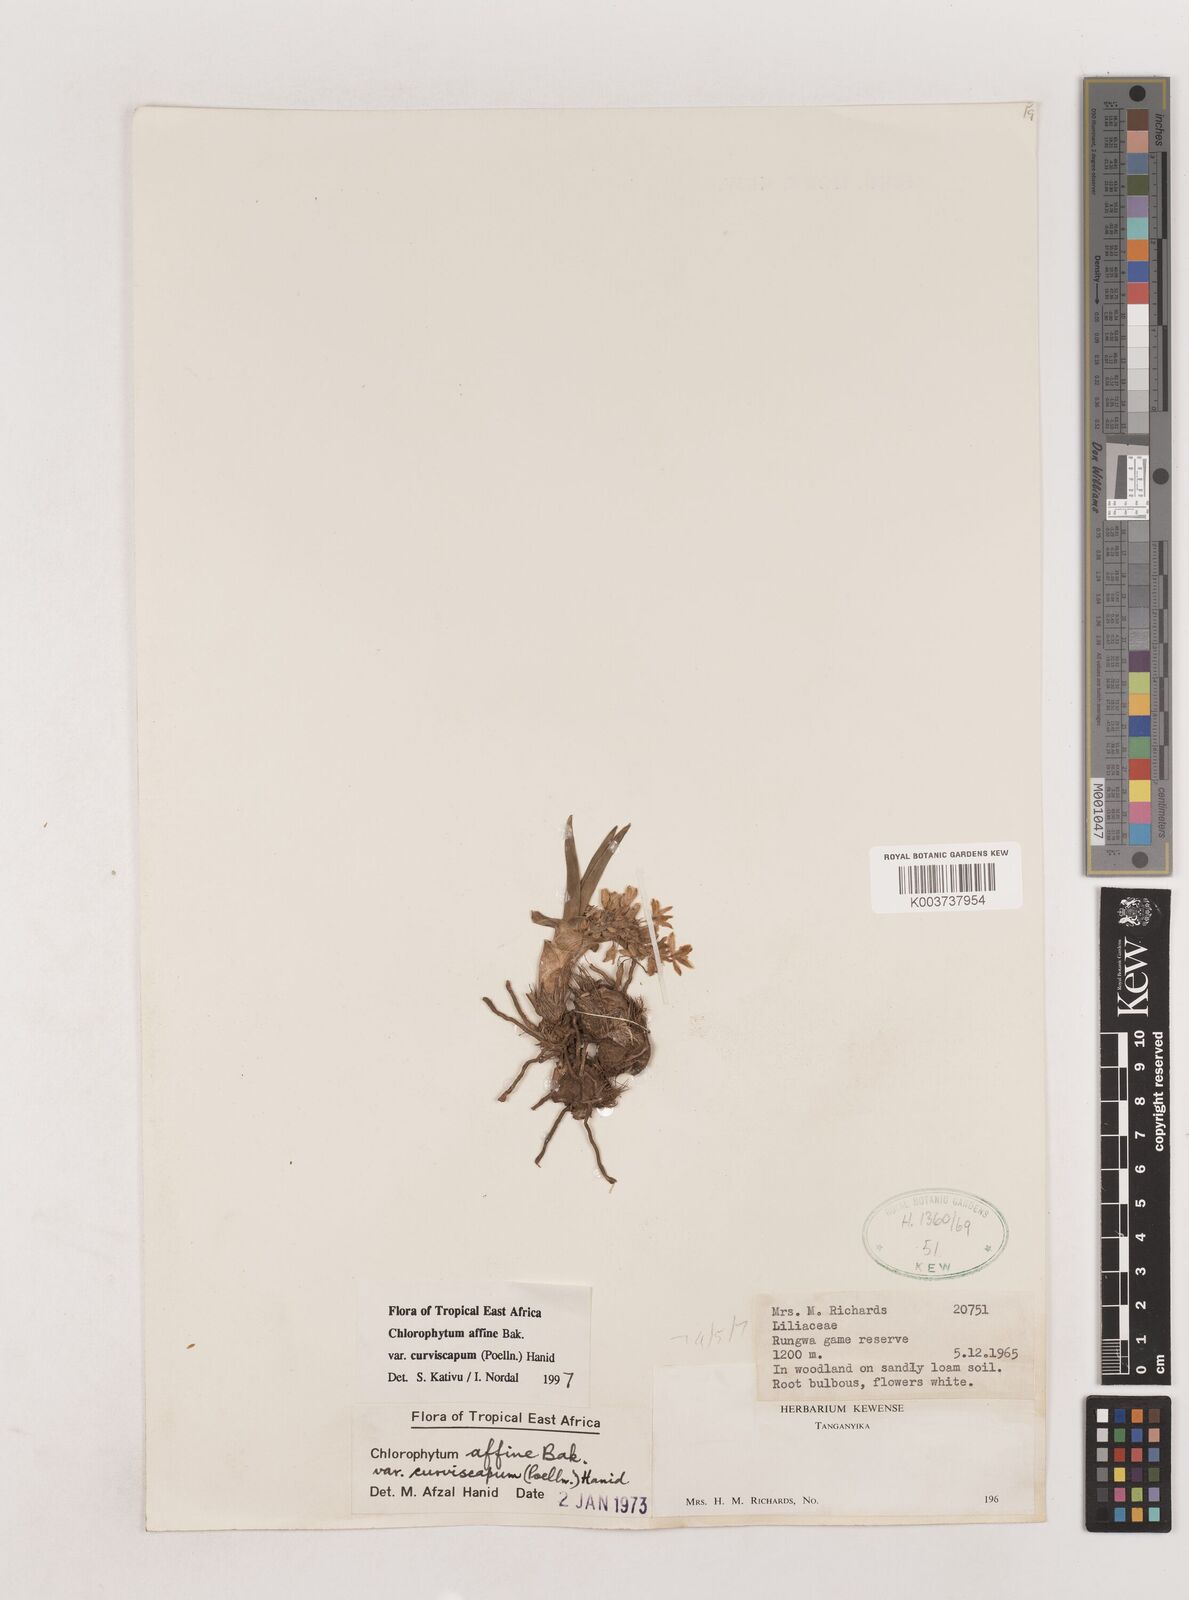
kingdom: Plantae
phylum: Tracheophyta
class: Liliopsida
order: Asparagales
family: Asparagaceae
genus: Chlorophytum
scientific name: Chlorophytum tordense
